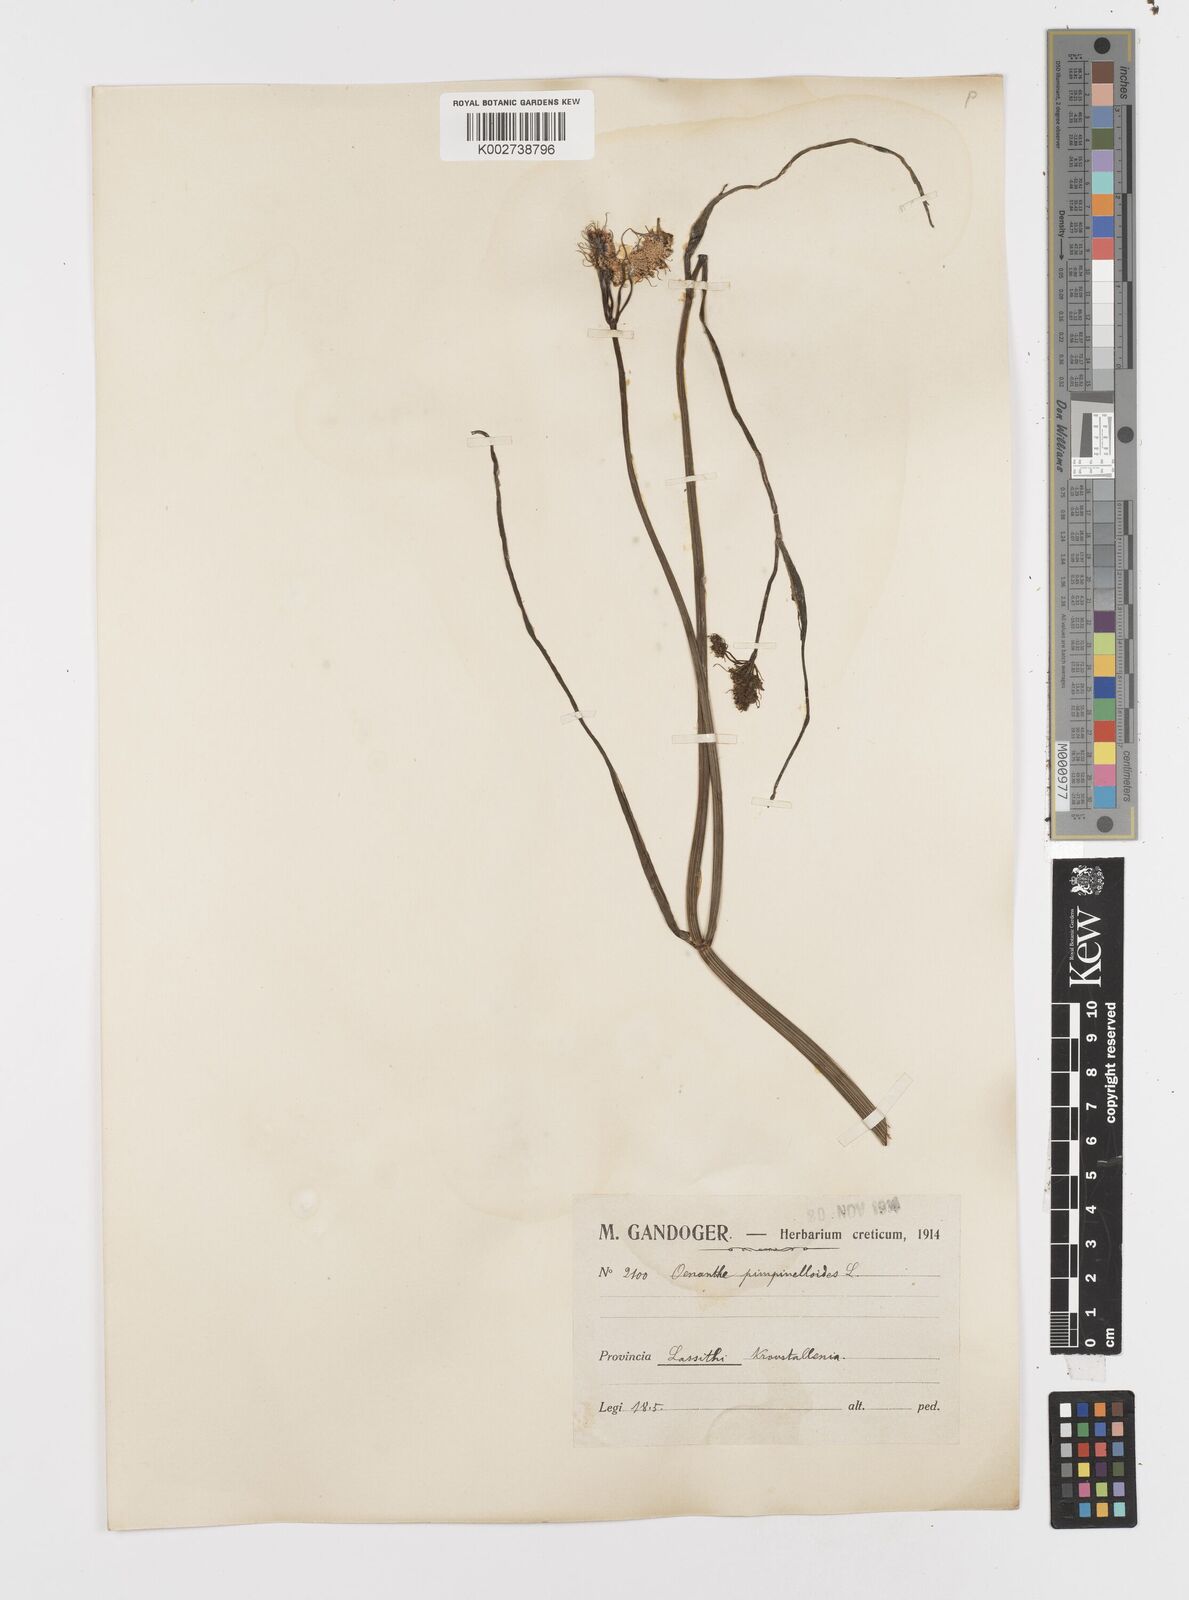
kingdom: Plantae
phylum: Tracheophyta
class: Magnoliopsida
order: Apiales
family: Apiaceae
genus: Oenanthe
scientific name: Oenanthe pimpinelloides
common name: Corky-fruited water-dropwort
